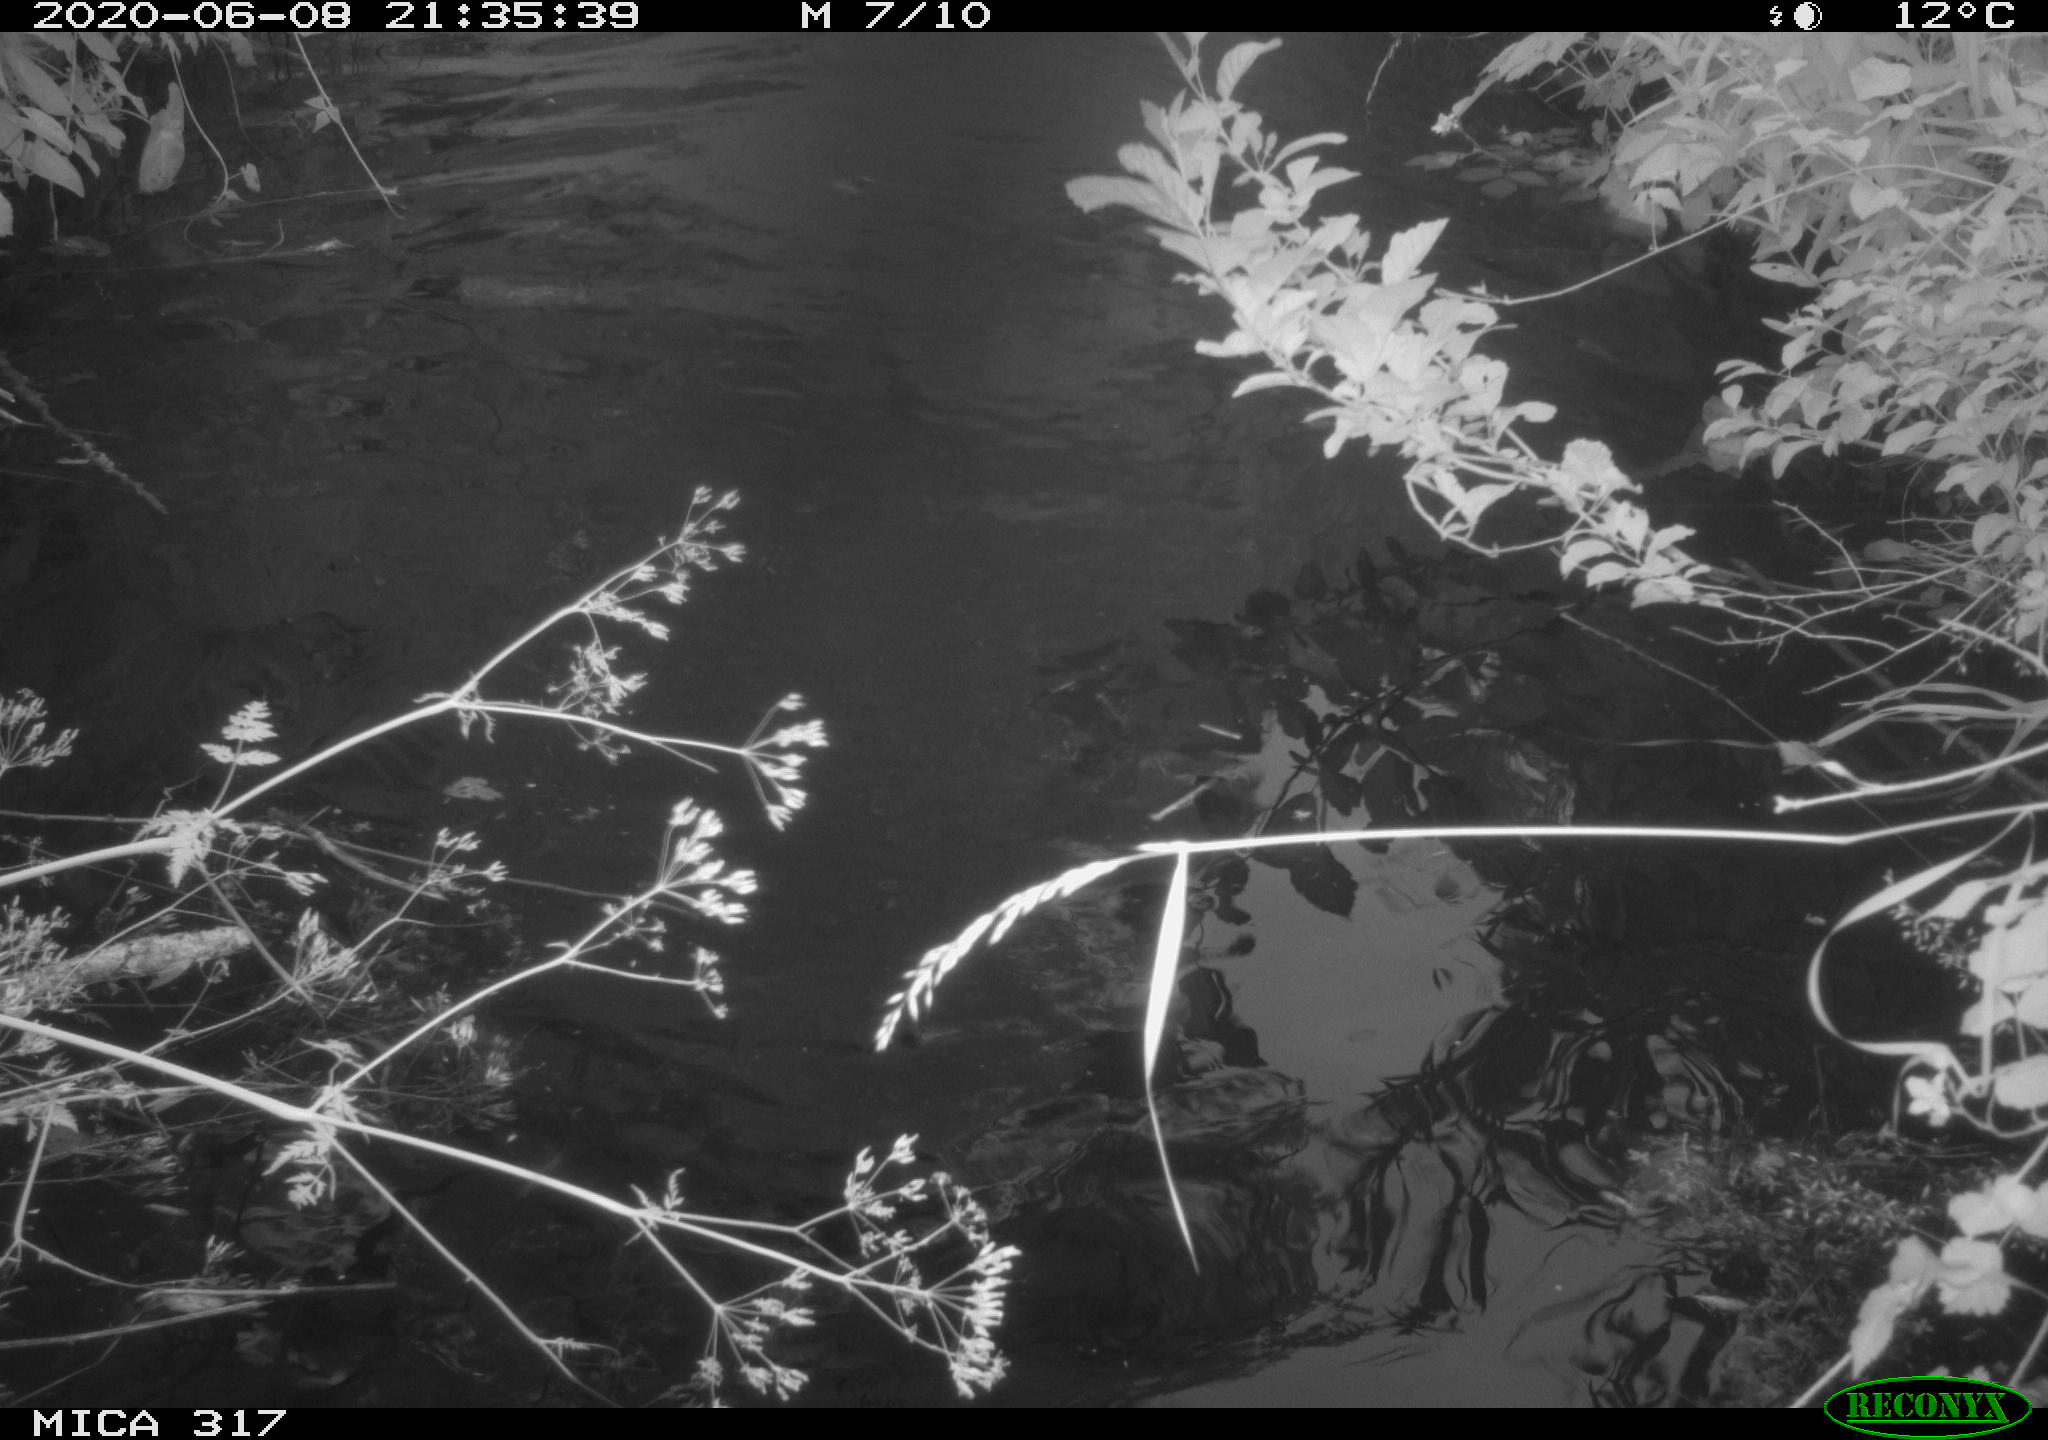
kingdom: Animalia
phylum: Chordata
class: Aves
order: Anseriformes
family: Anatidae
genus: Anas
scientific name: Anas platyrhynchos
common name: Mallard
